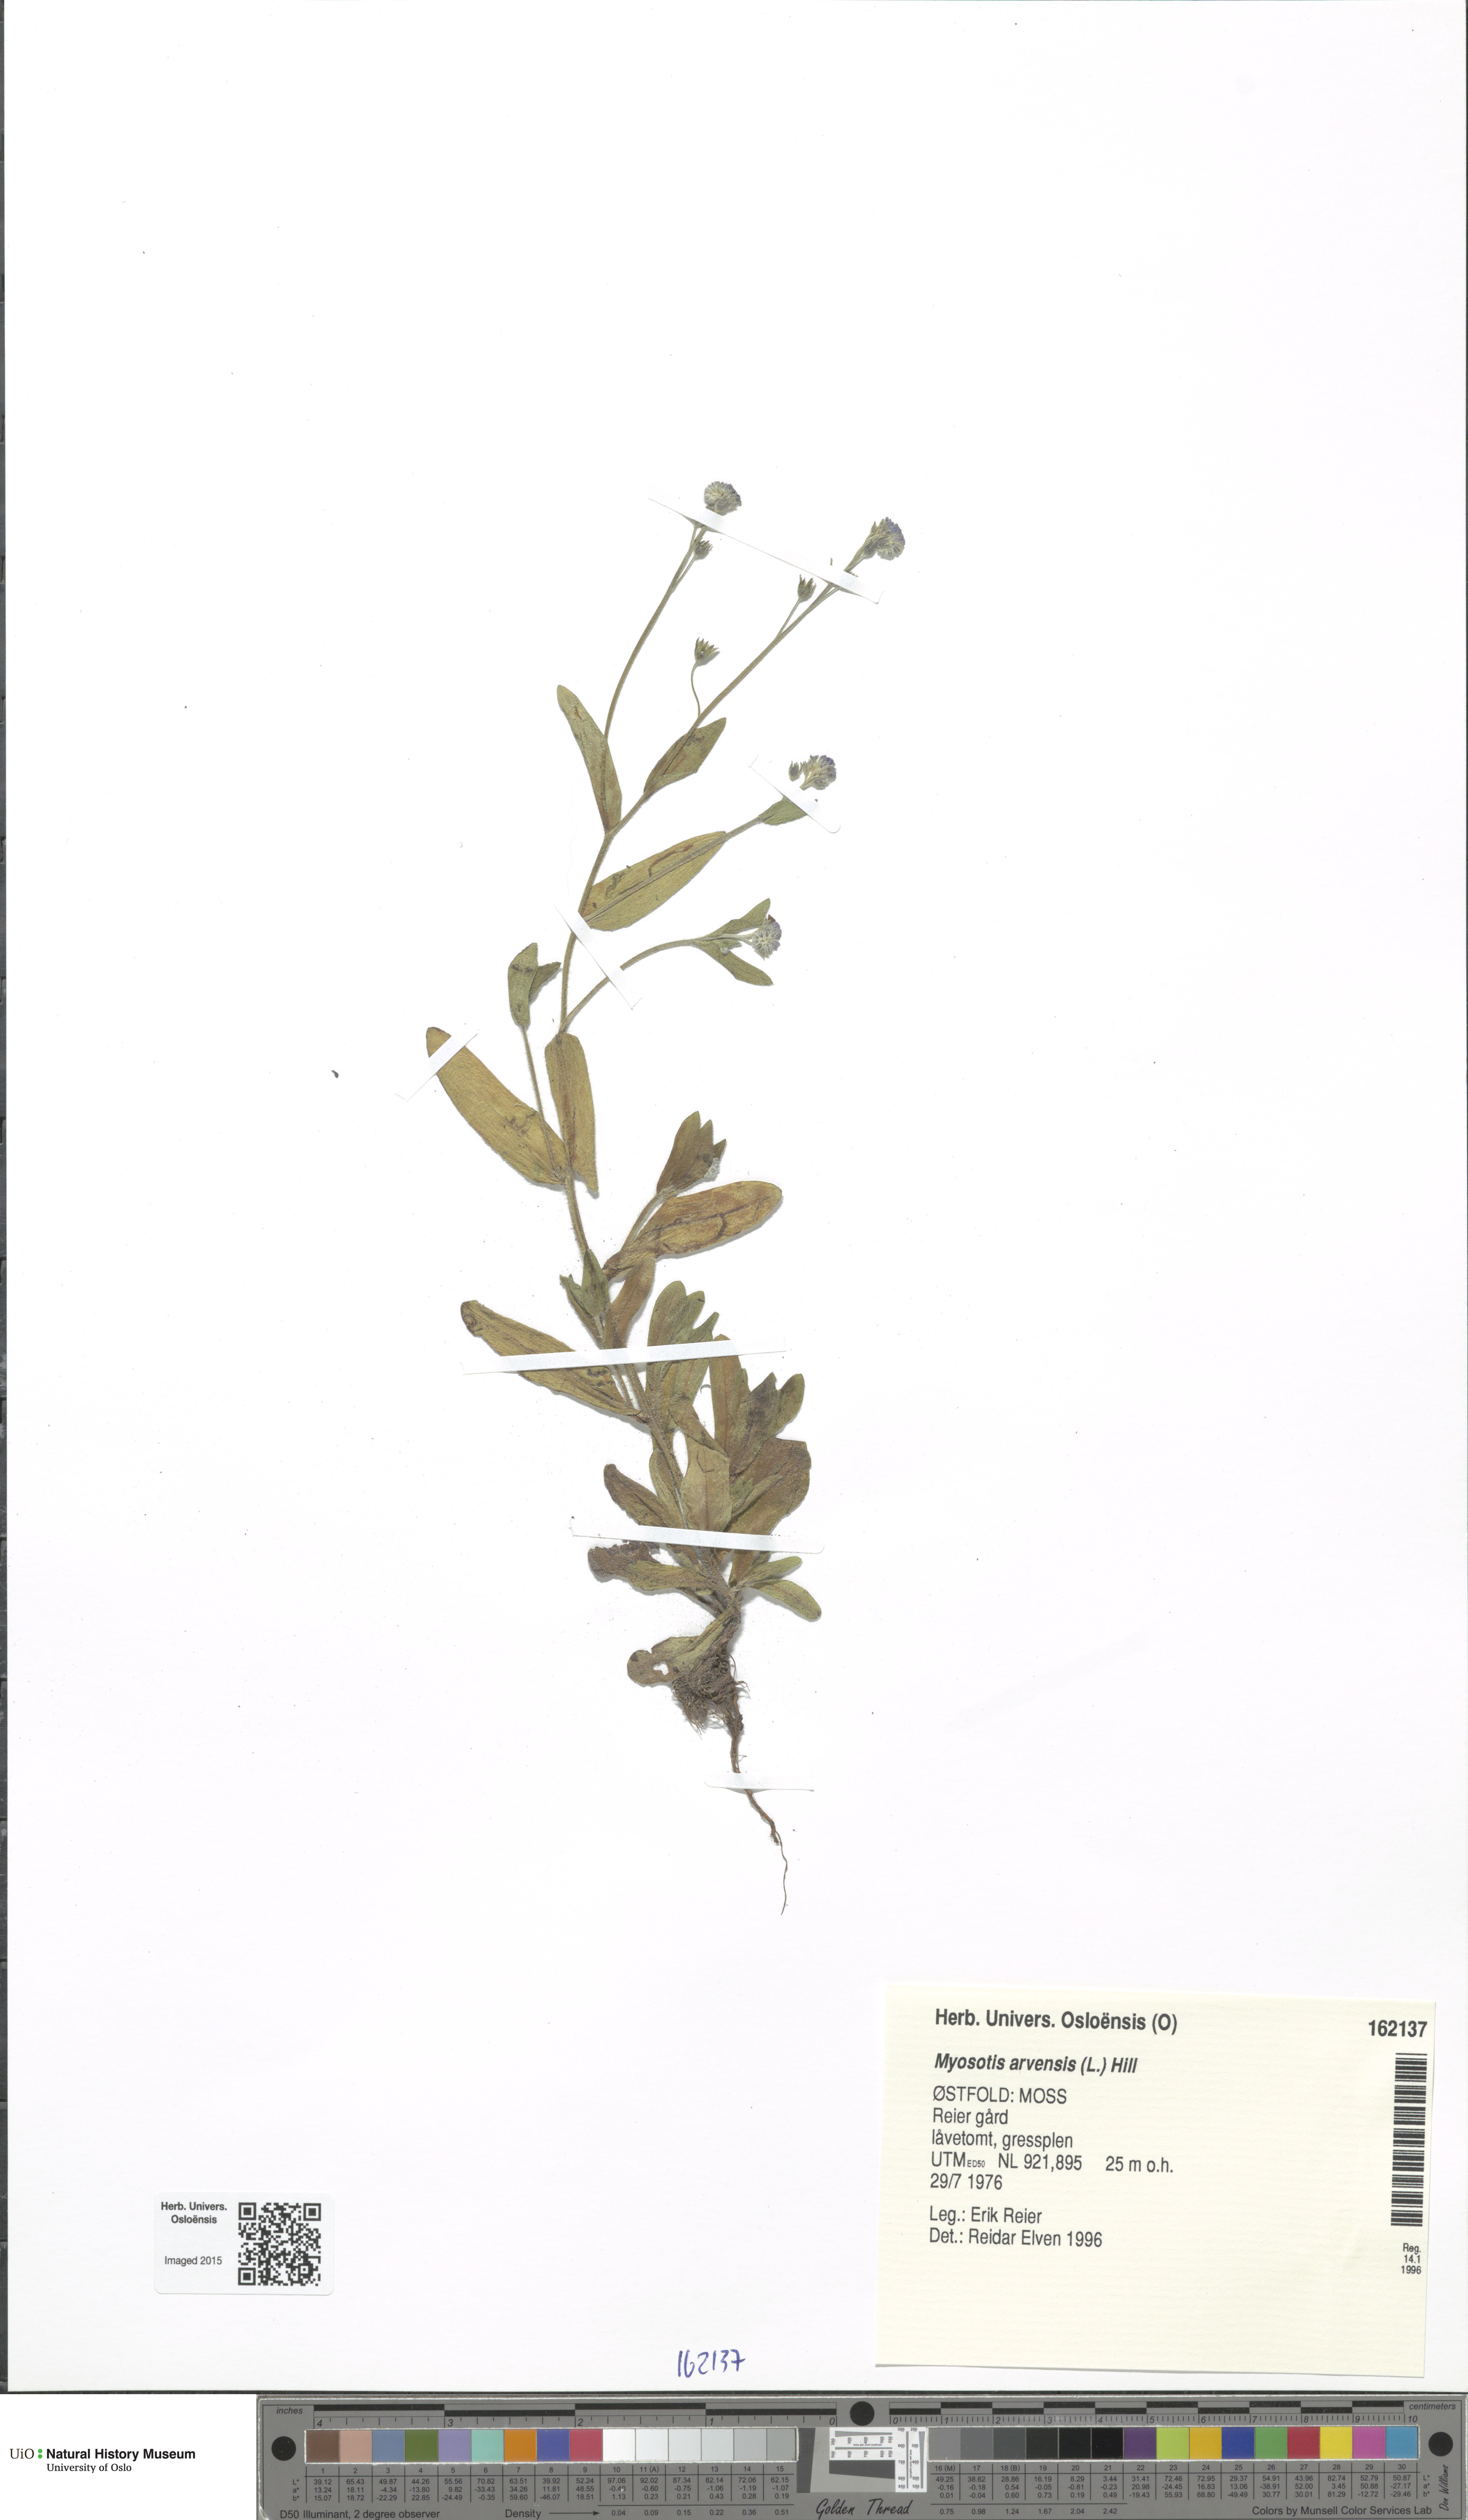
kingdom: Plantae
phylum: Tracheophyta
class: Magnoliopsida
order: Boraginales
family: Boraginaceae
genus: Myosotis
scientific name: Myosotis arvensis
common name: Field forget-me-not
